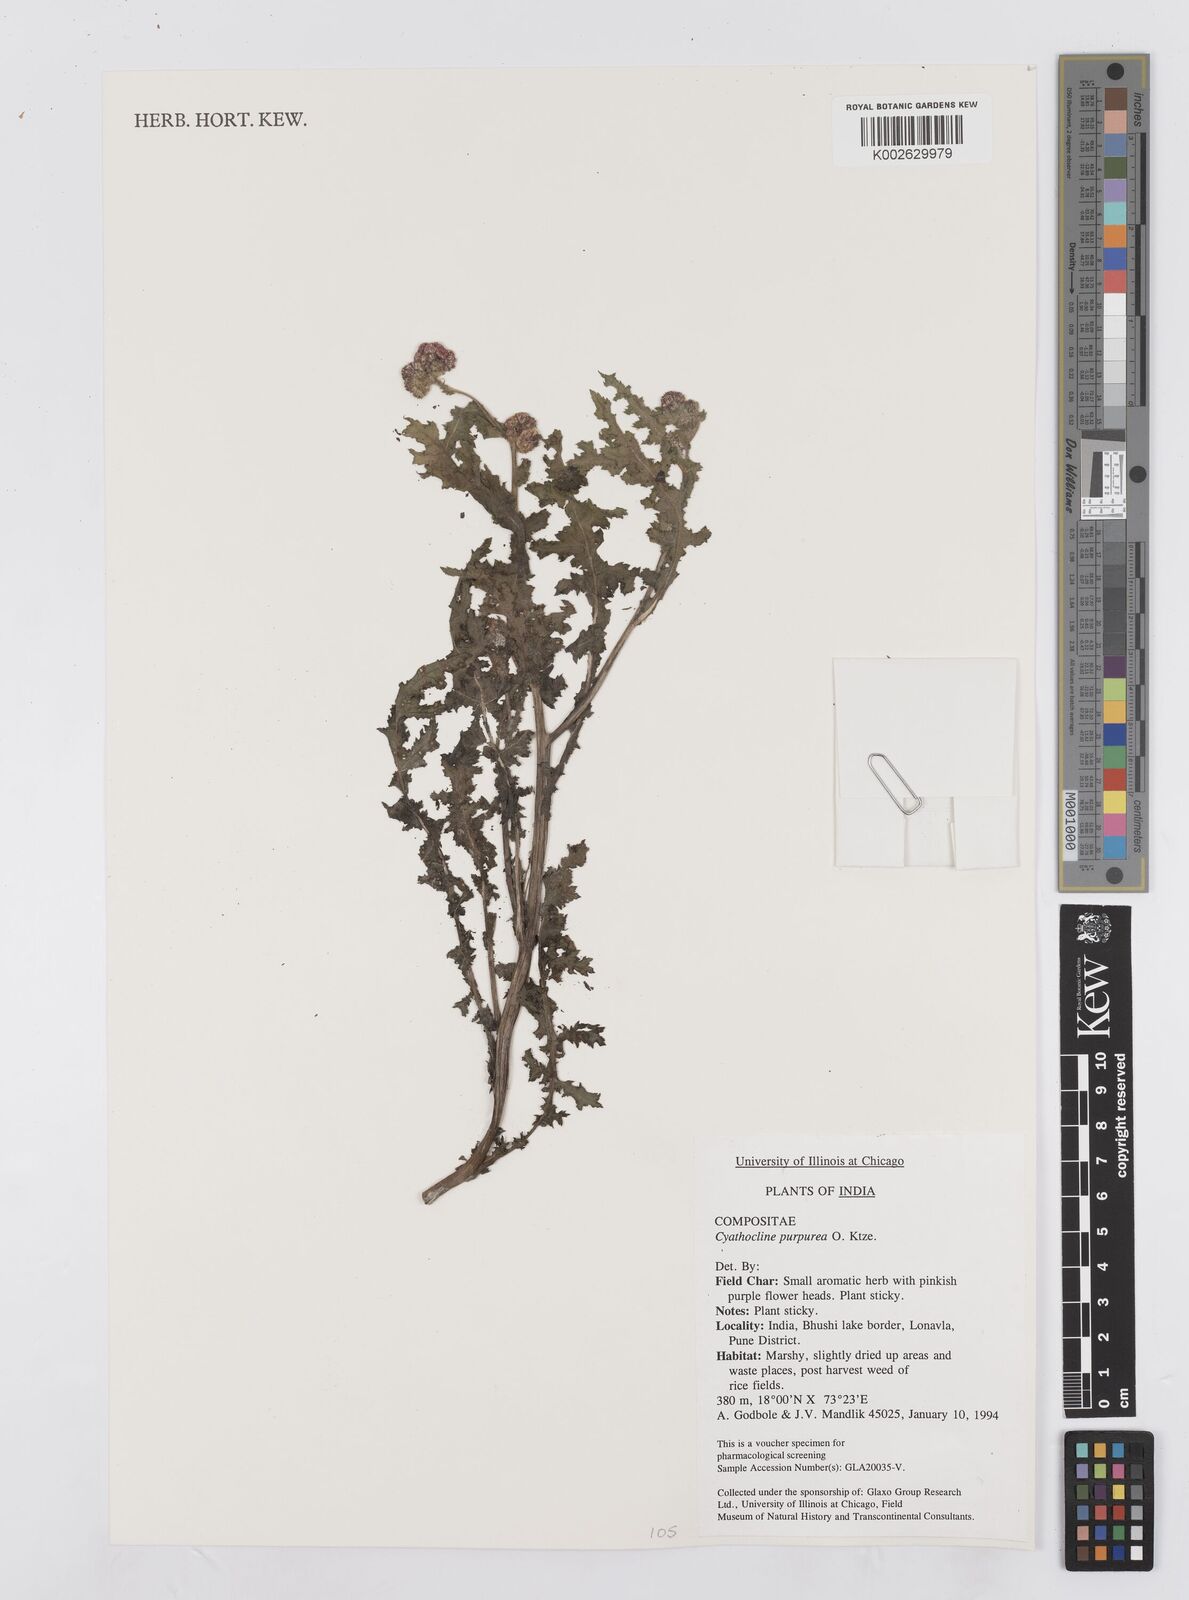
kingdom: Plantae
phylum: Tracheophyta
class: Magnoliopsida
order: Asterales
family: Asteraceae
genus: Cyathocline
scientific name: Cyathocline purpurea
